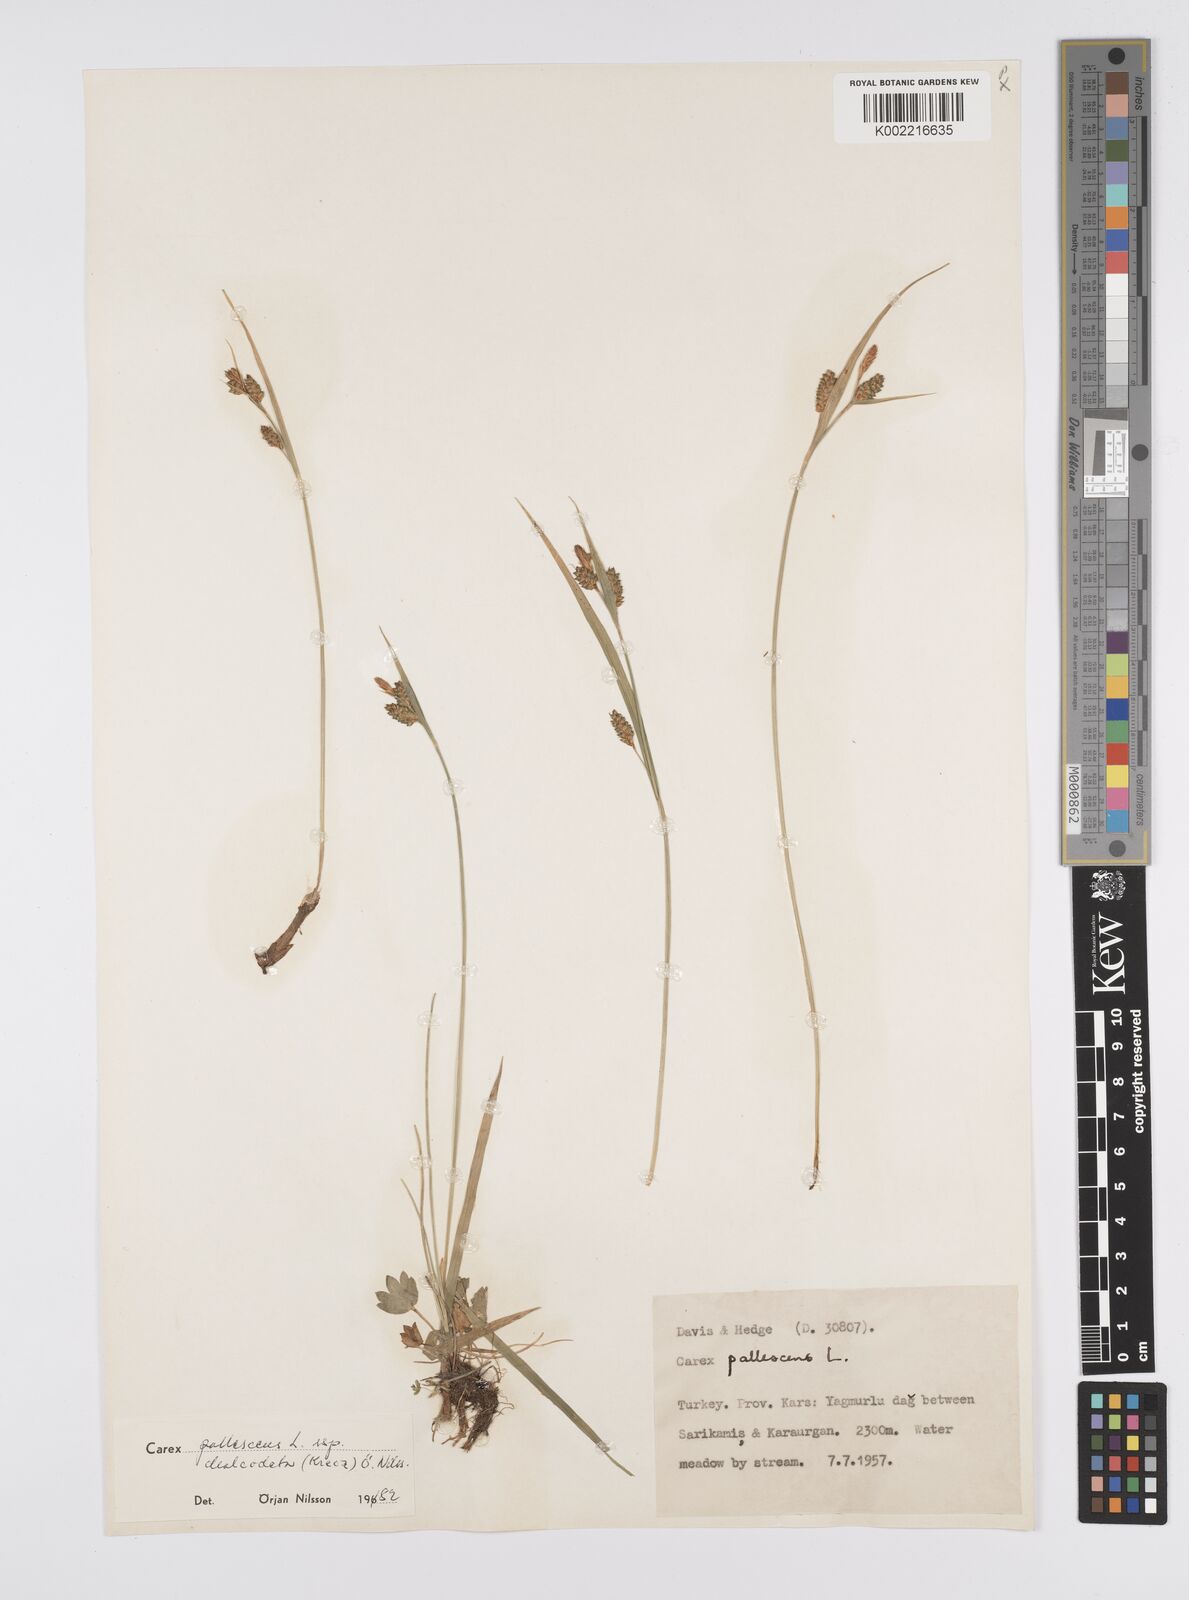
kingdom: Plantae
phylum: Tracheophyta
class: Liliopsida
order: Poales
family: Cyperaceae
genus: Carex
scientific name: Carex pallescens
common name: Pale sedge
